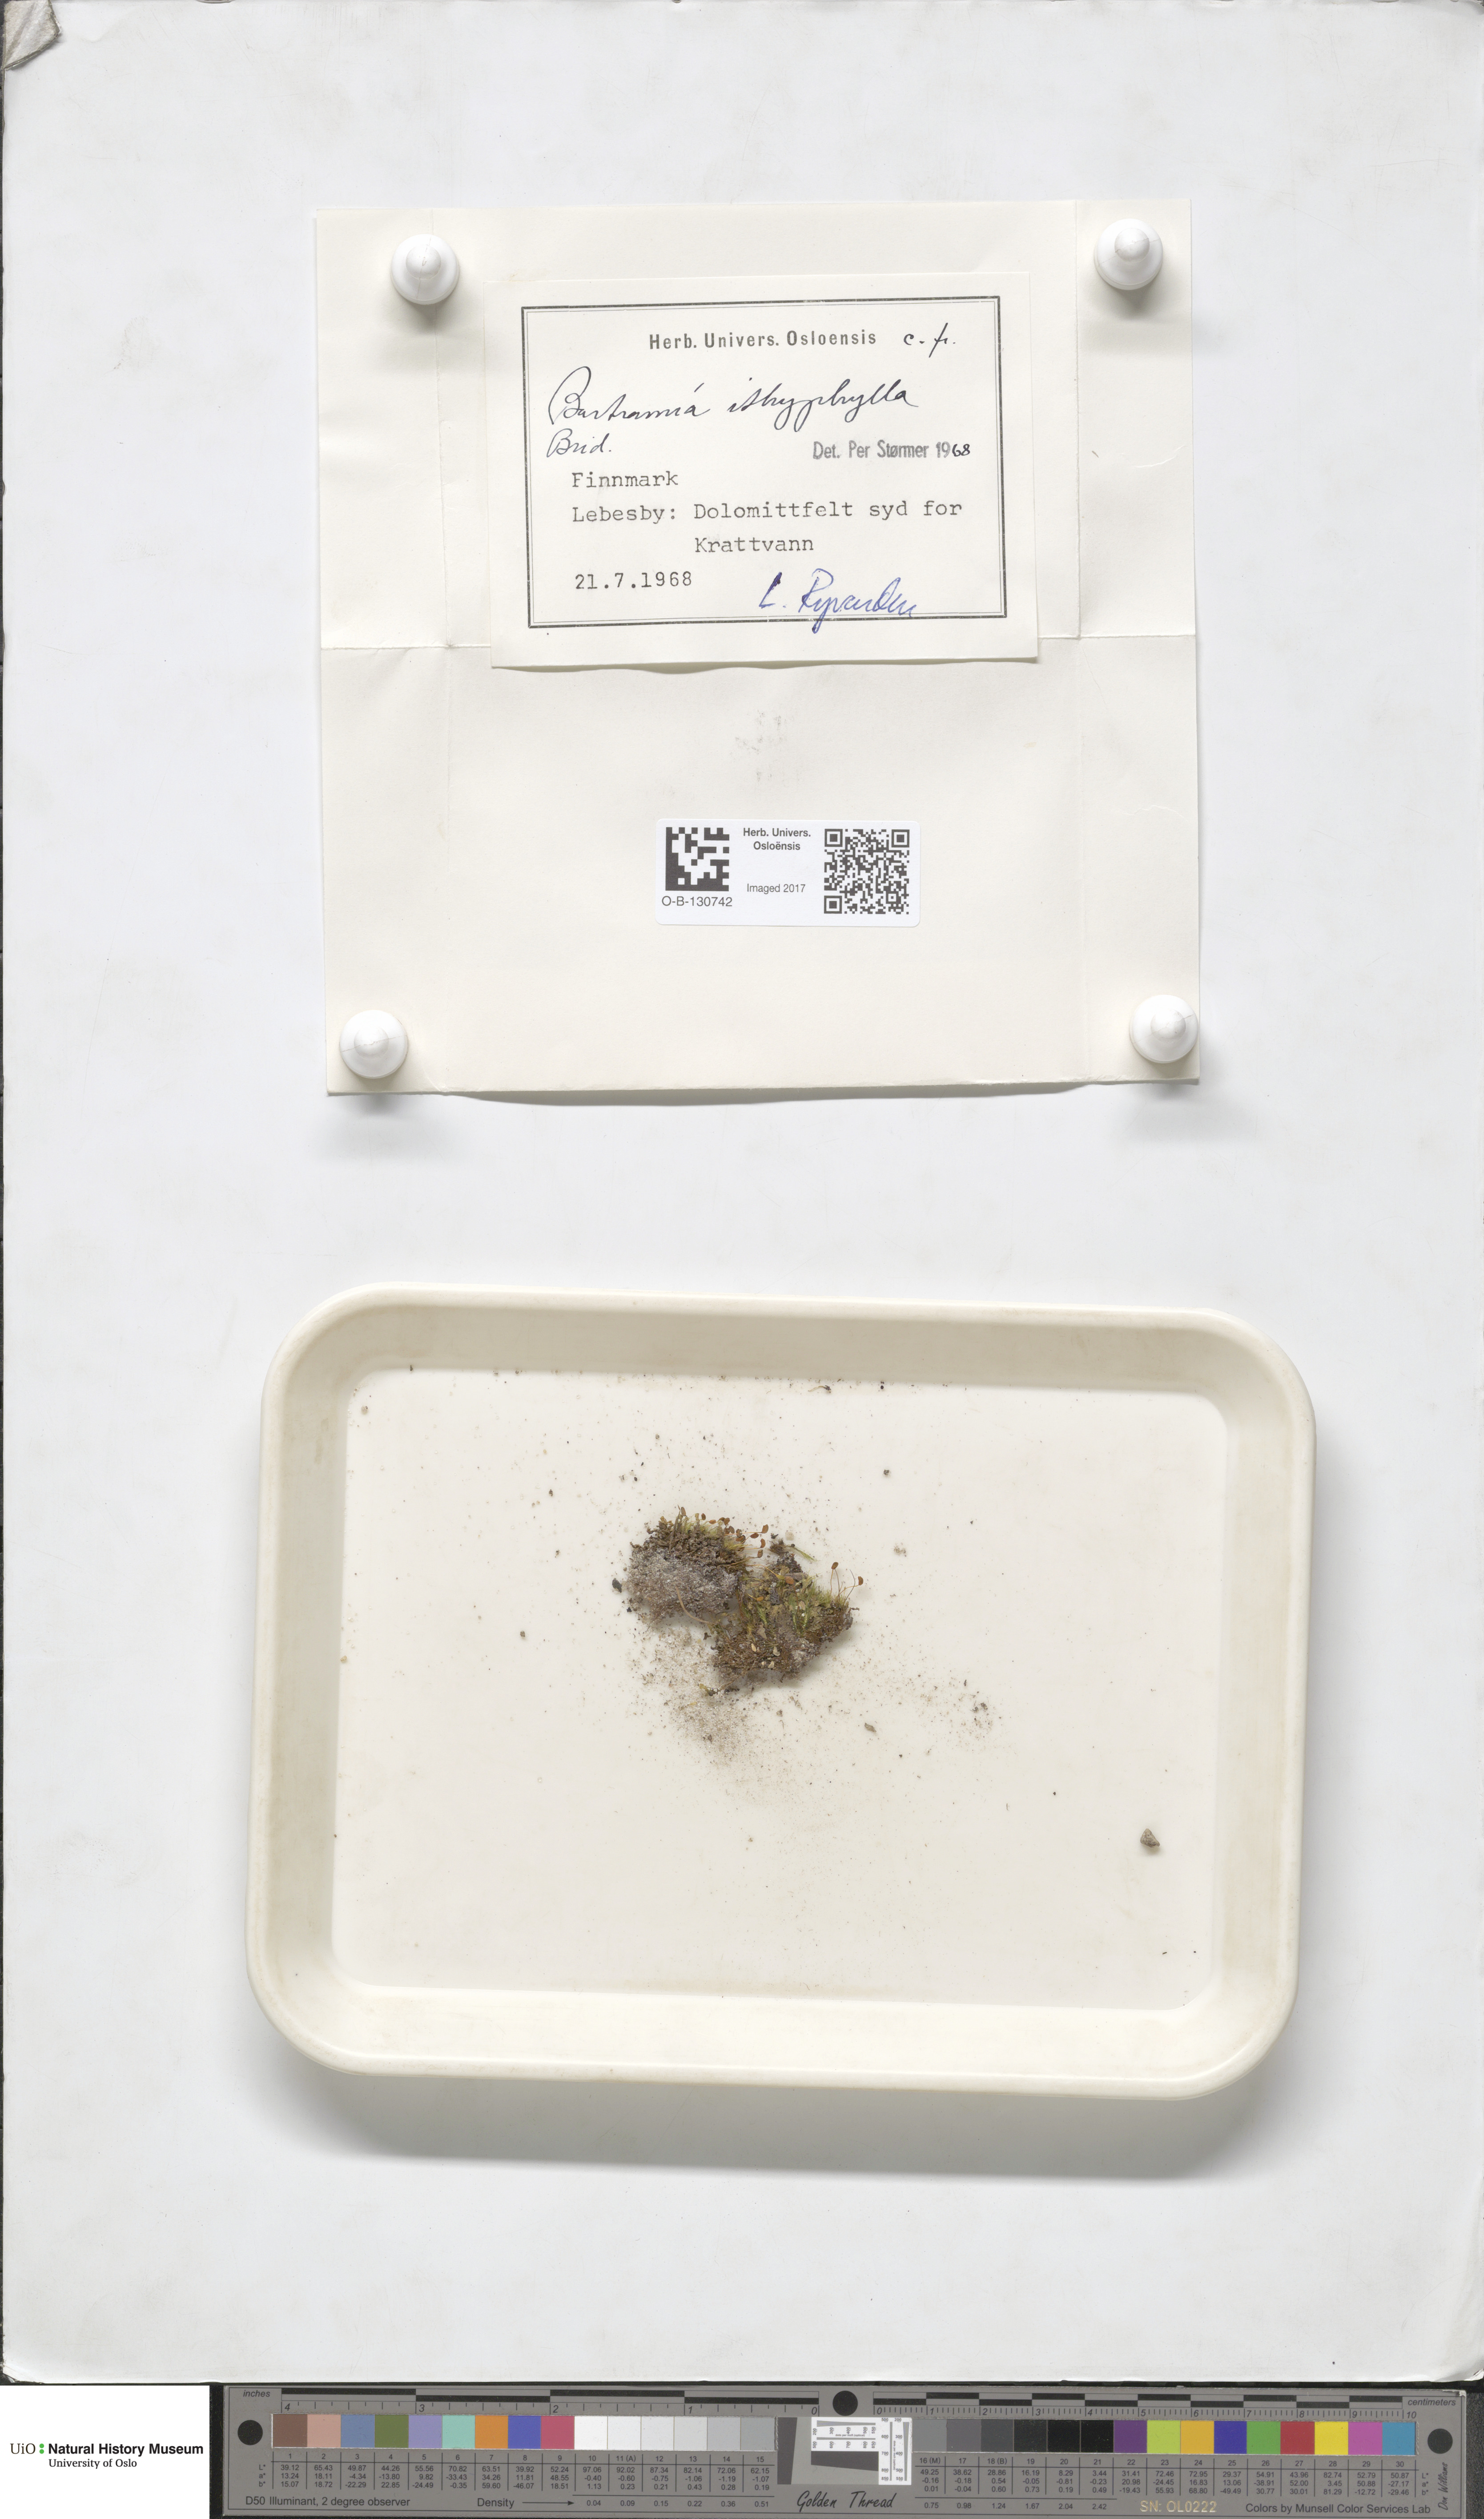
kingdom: Plantae
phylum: Bryophyta
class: Bryopsida
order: Bartramiales
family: Bartramiaceae
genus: Bartramia
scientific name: Bartramia ithyphylla
